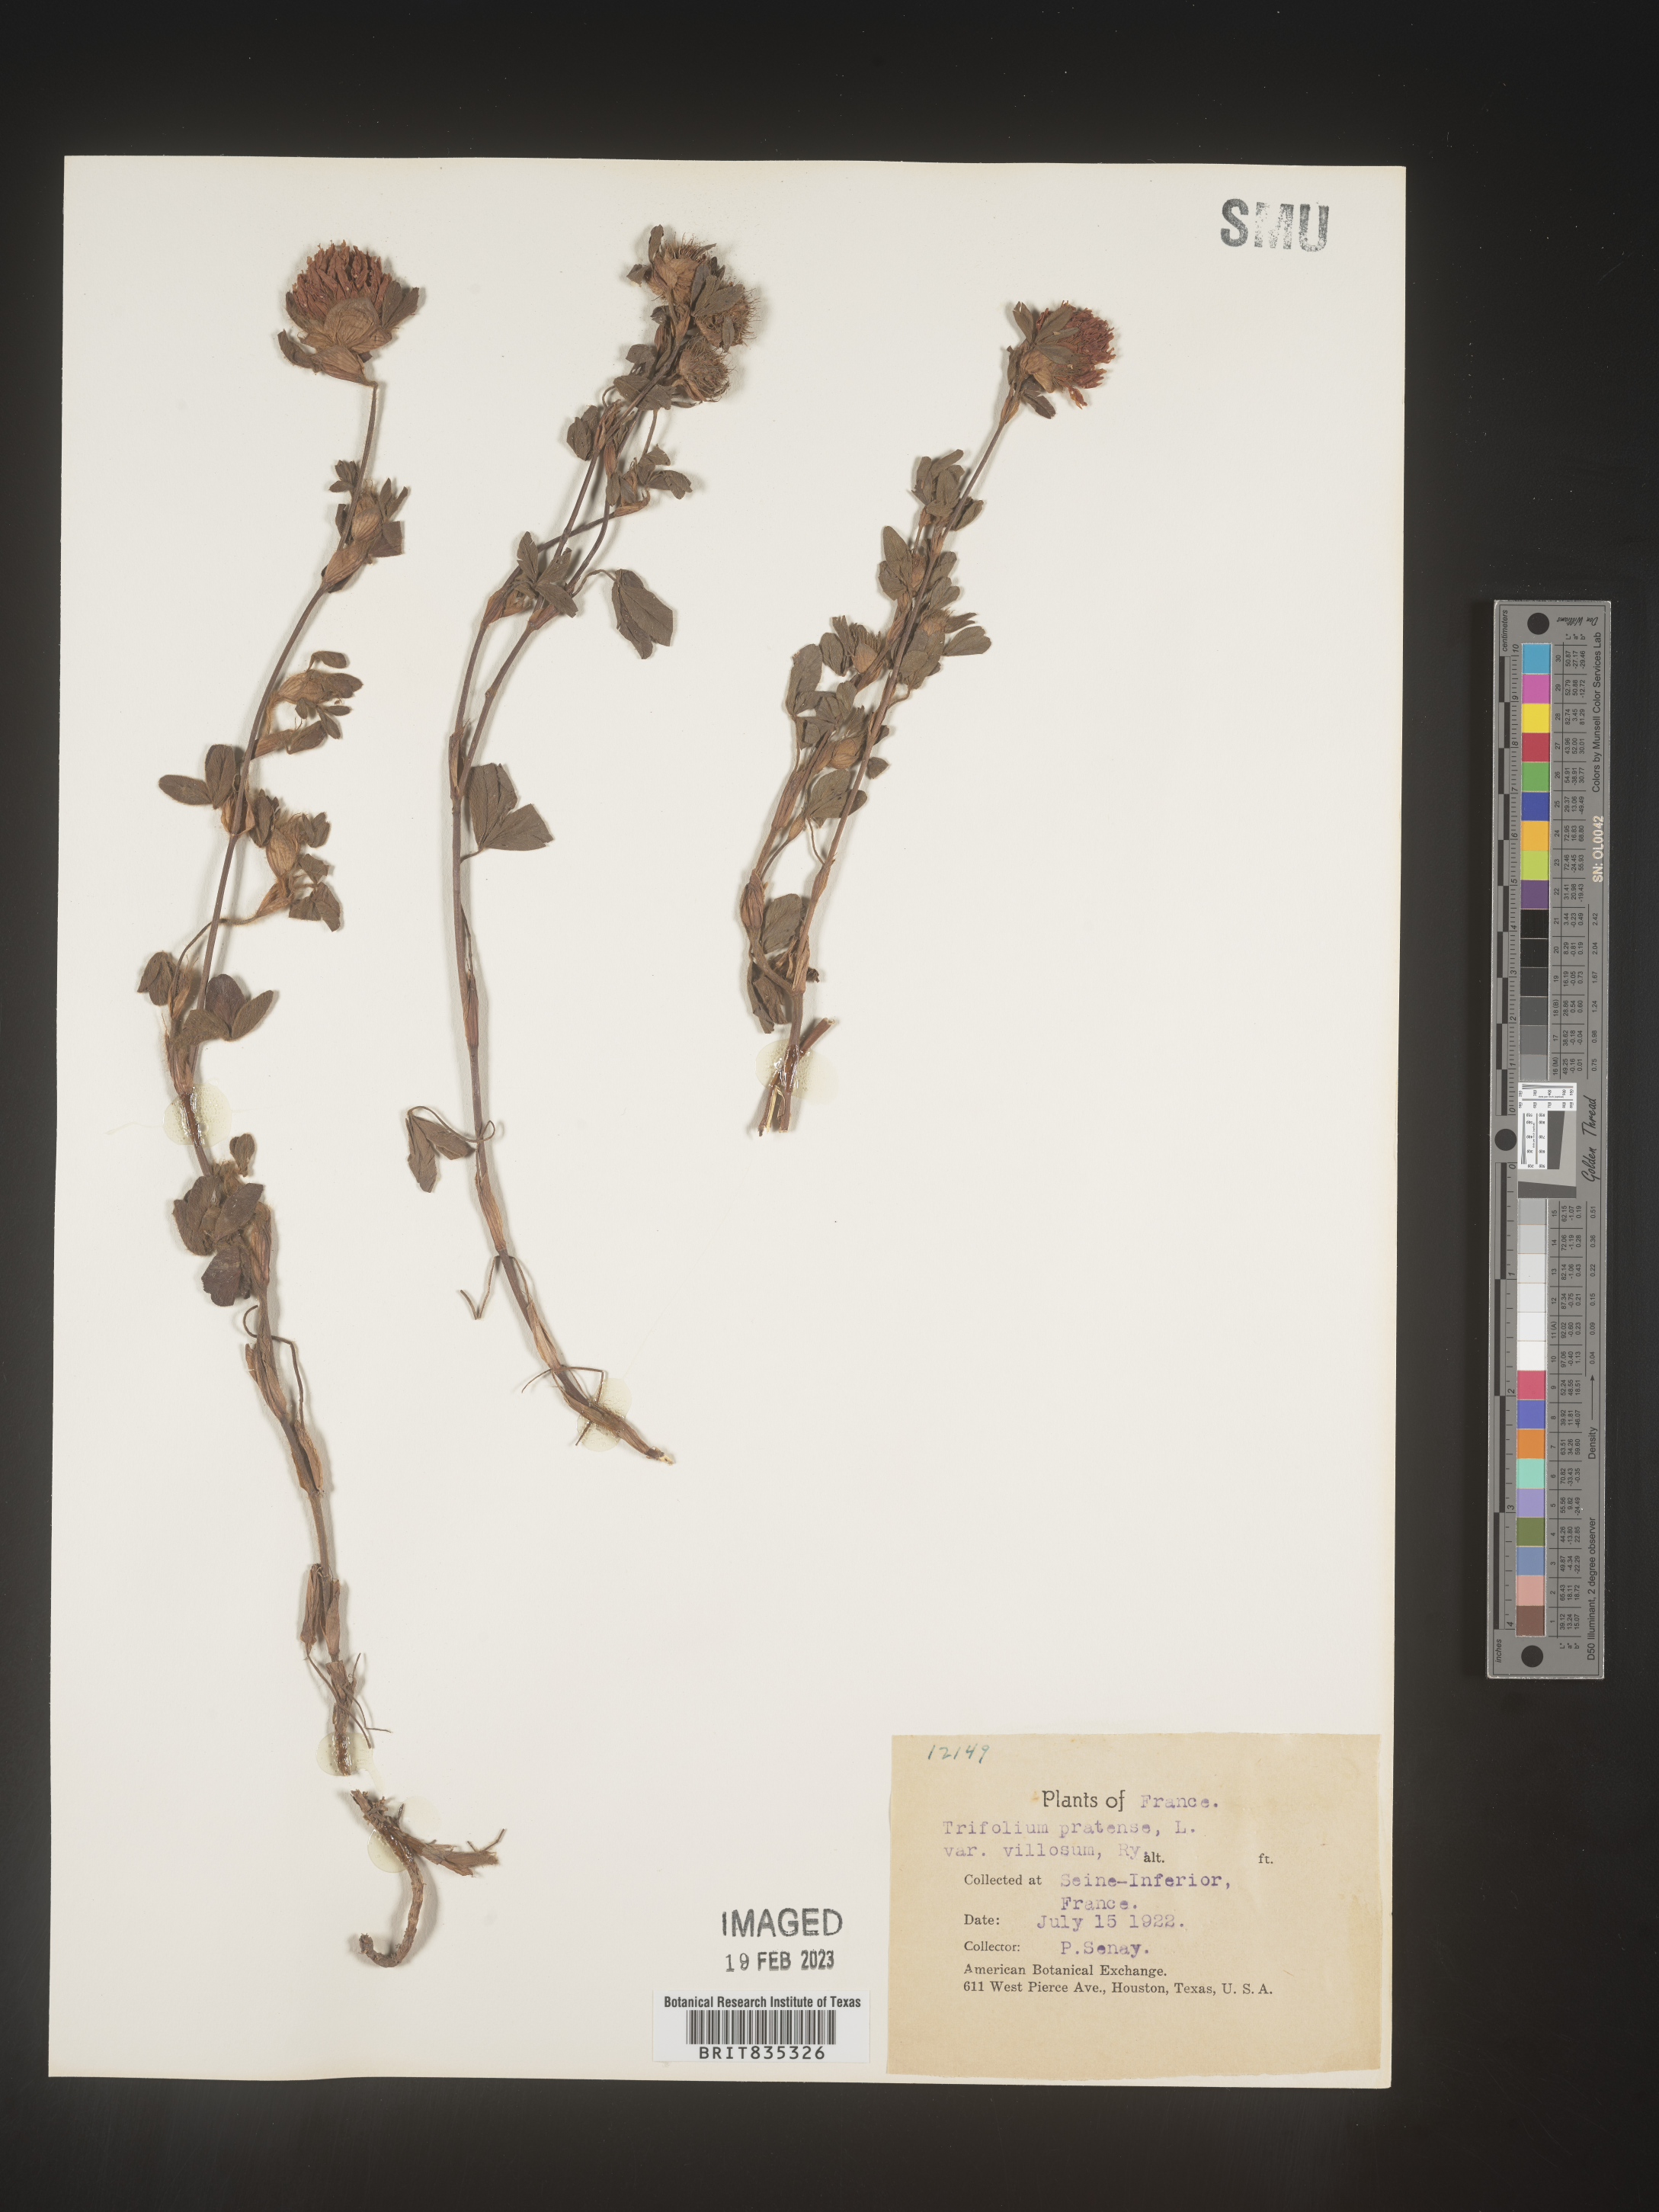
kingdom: Plantae
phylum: Tracheophyta
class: Magnoliopsida
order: Fabales
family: Fabaceae
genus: Trifolium
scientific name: Trifolium
